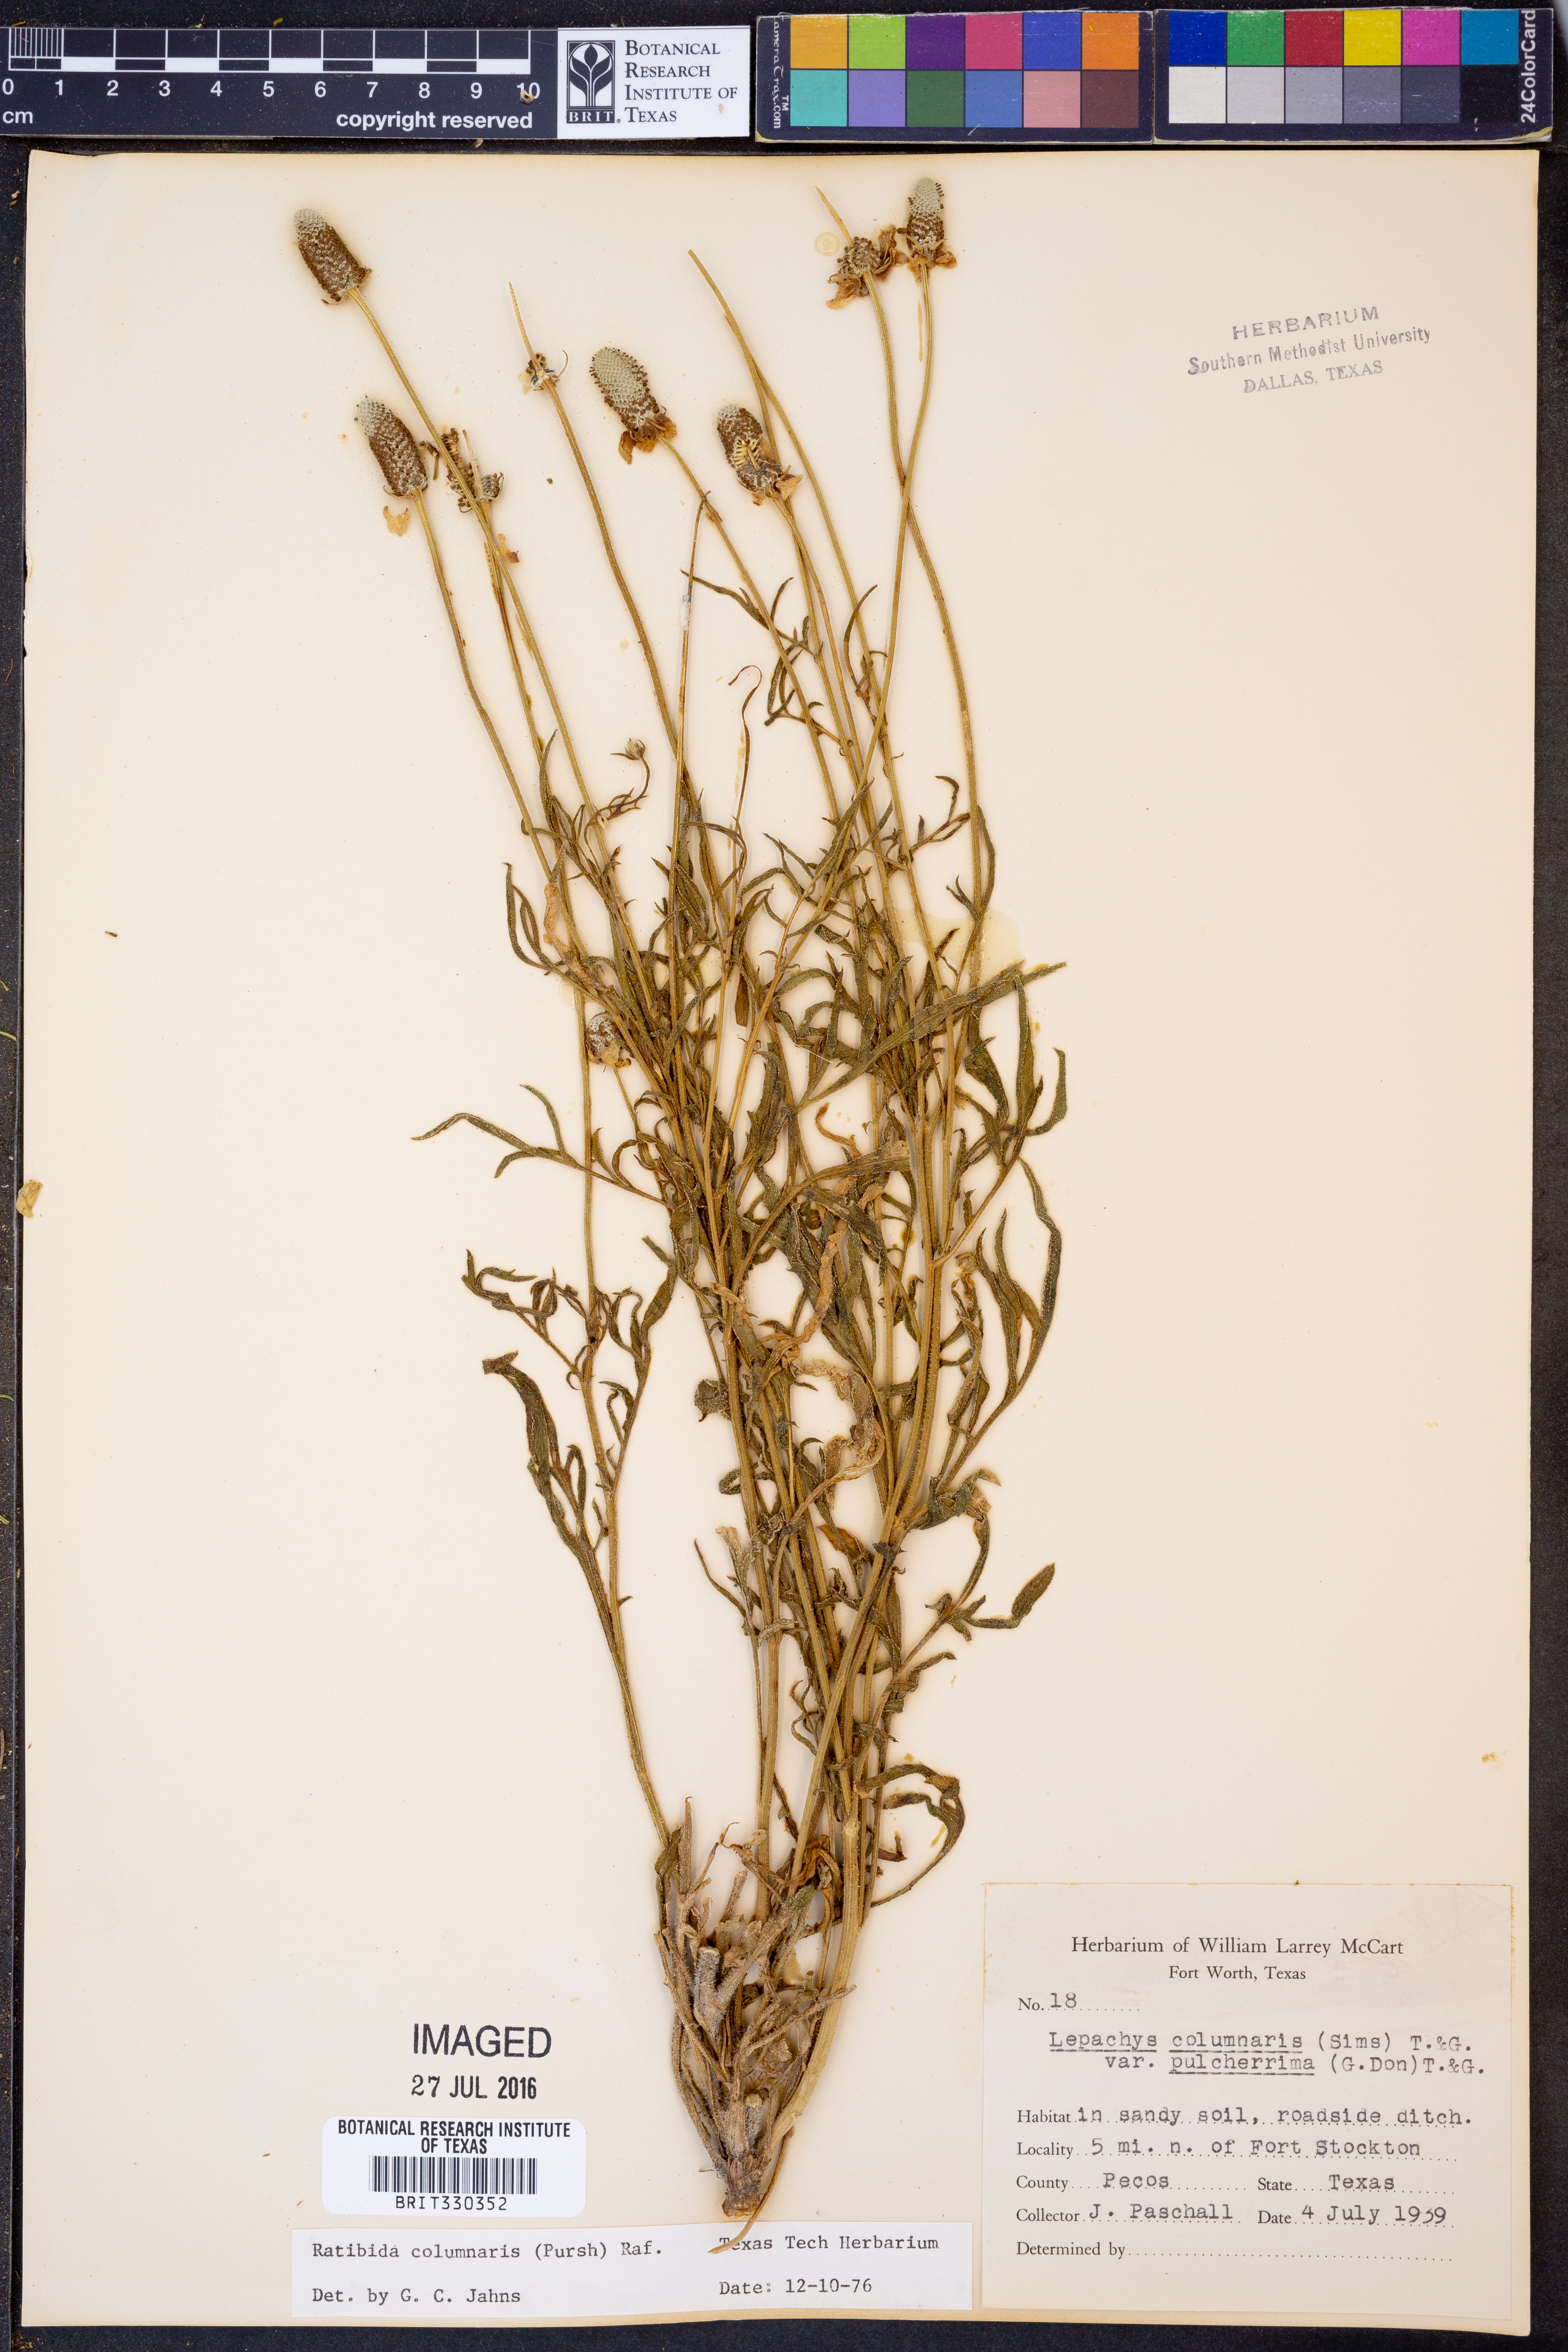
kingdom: Plantae
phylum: Tracheophyta
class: Magnoliopsida
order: Asterales
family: Asteraceae
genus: Ratibida
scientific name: Ratibida columnifera
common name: Prairie coneflower
